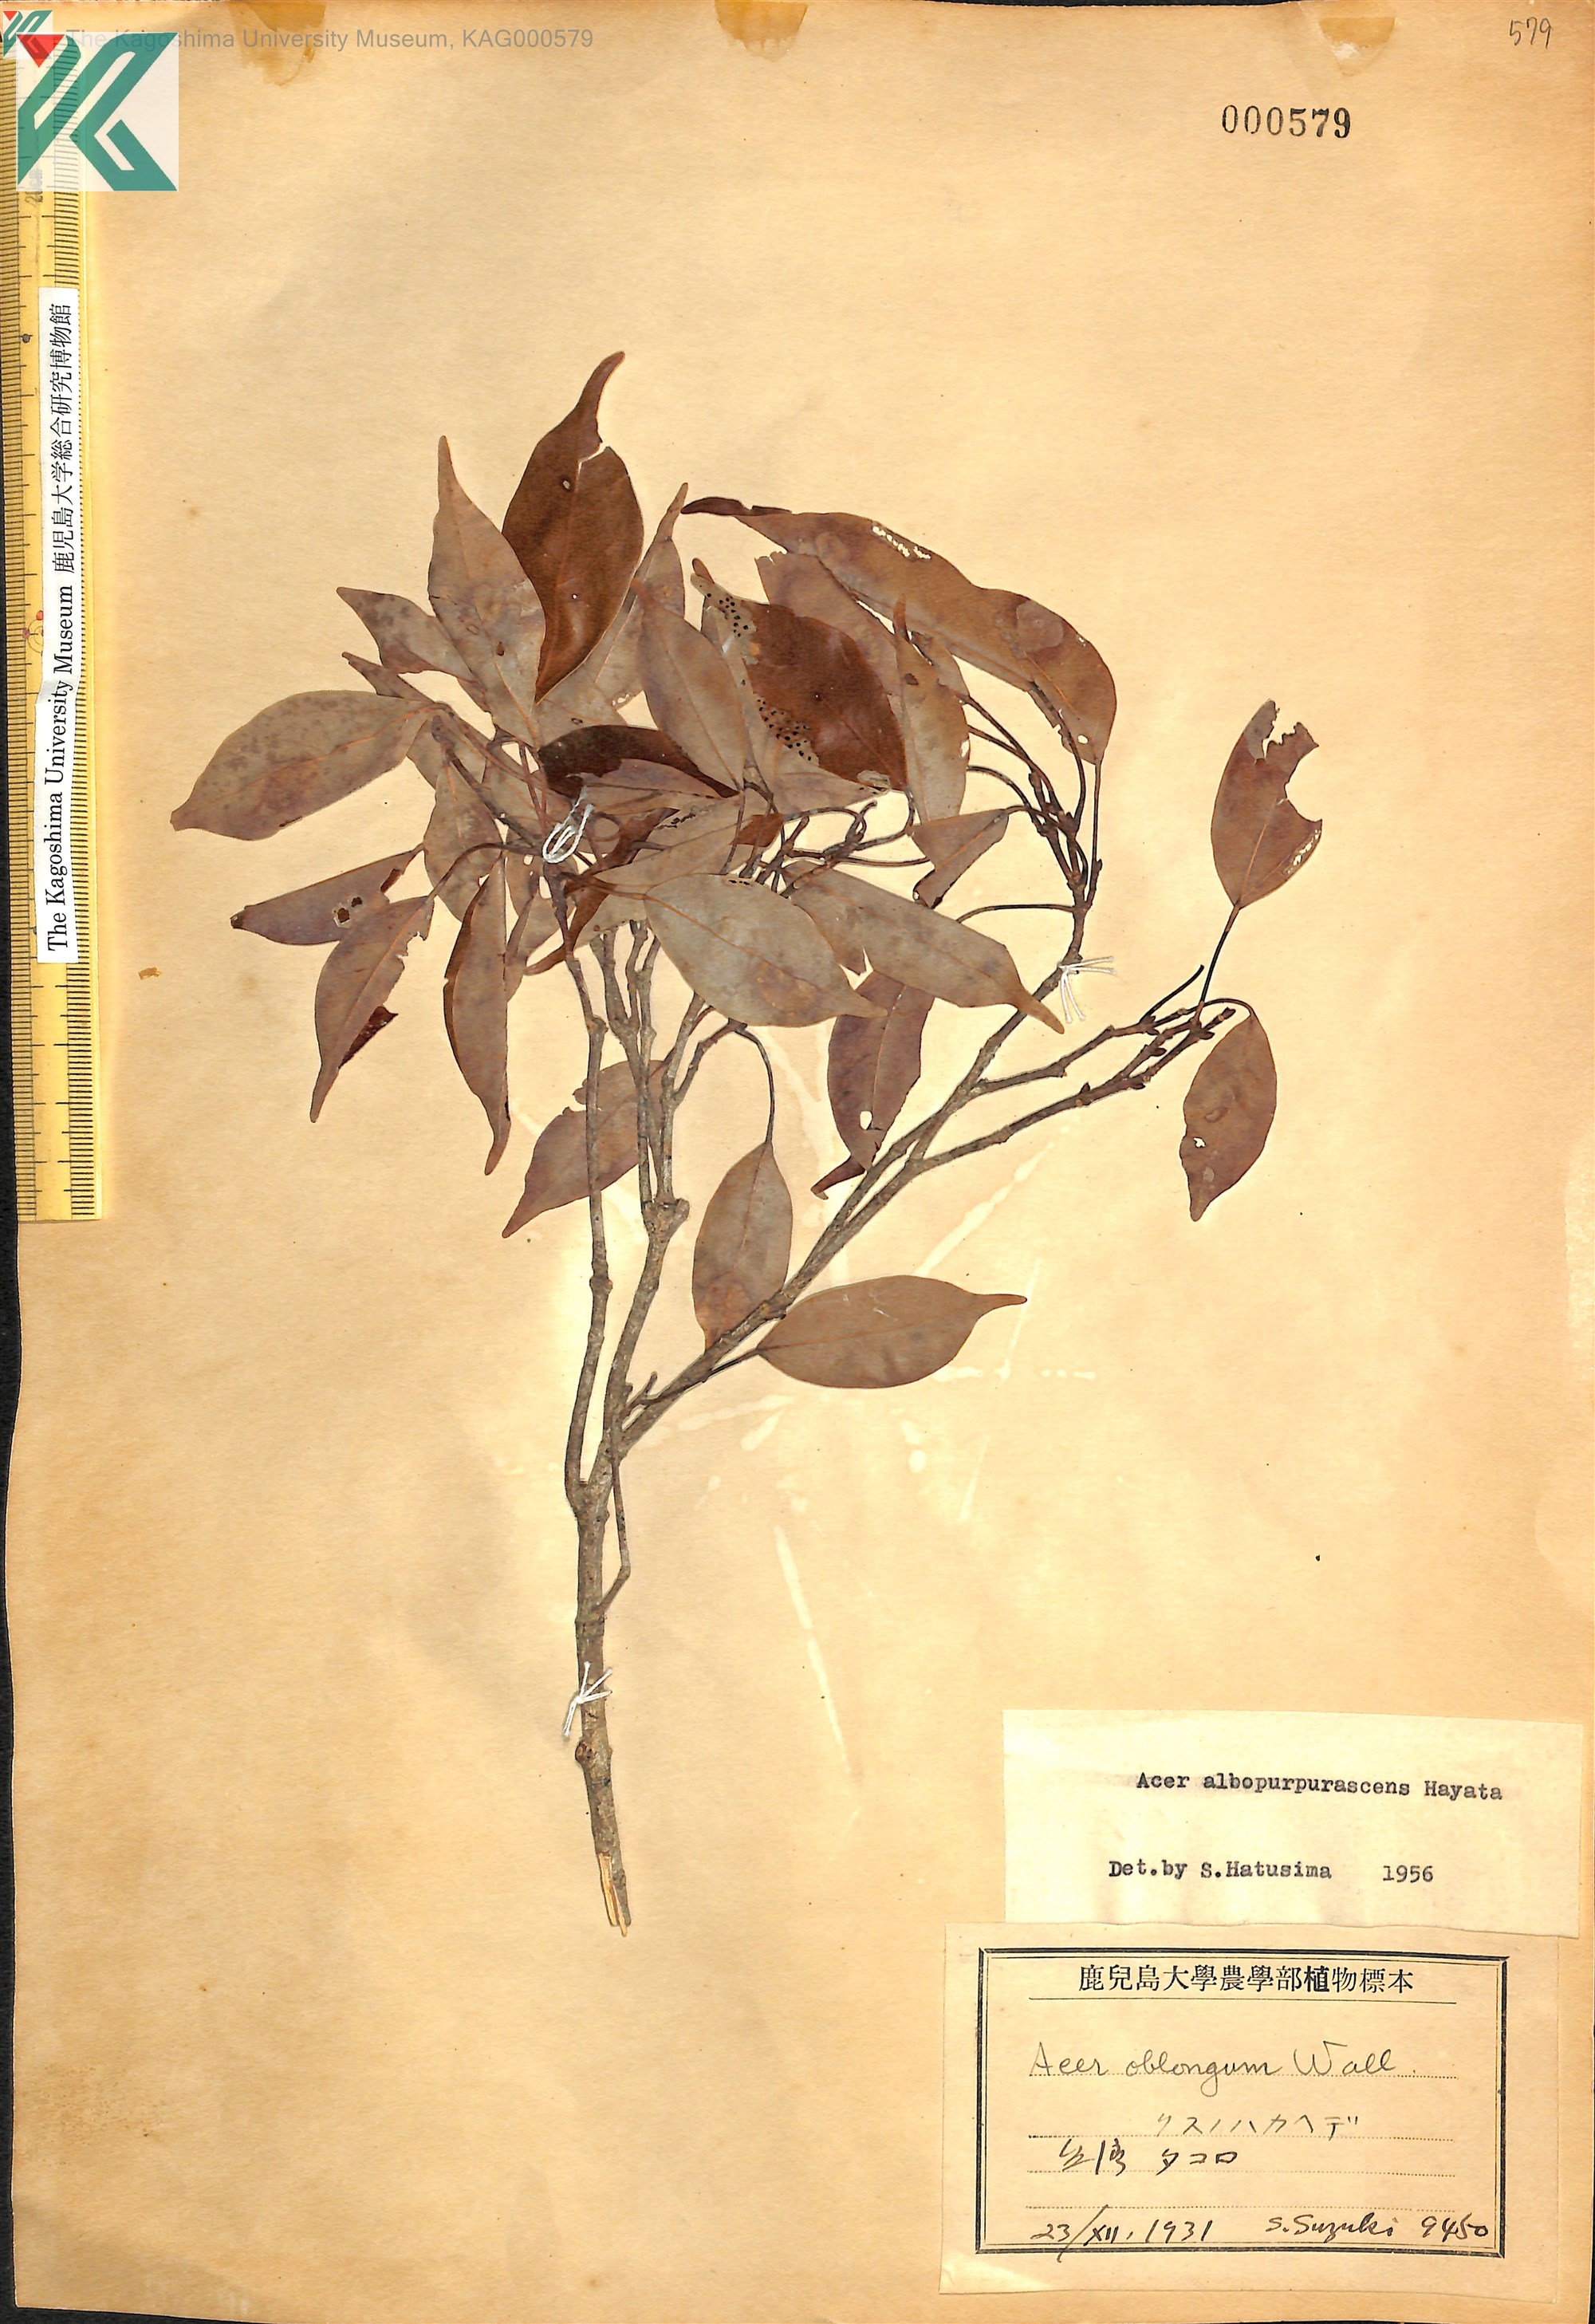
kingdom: Plantae
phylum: Tracheophyta
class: Magnoliopsida
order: Sapindales
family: Sapindaceae
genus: Acer
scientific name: Acer oblongum
